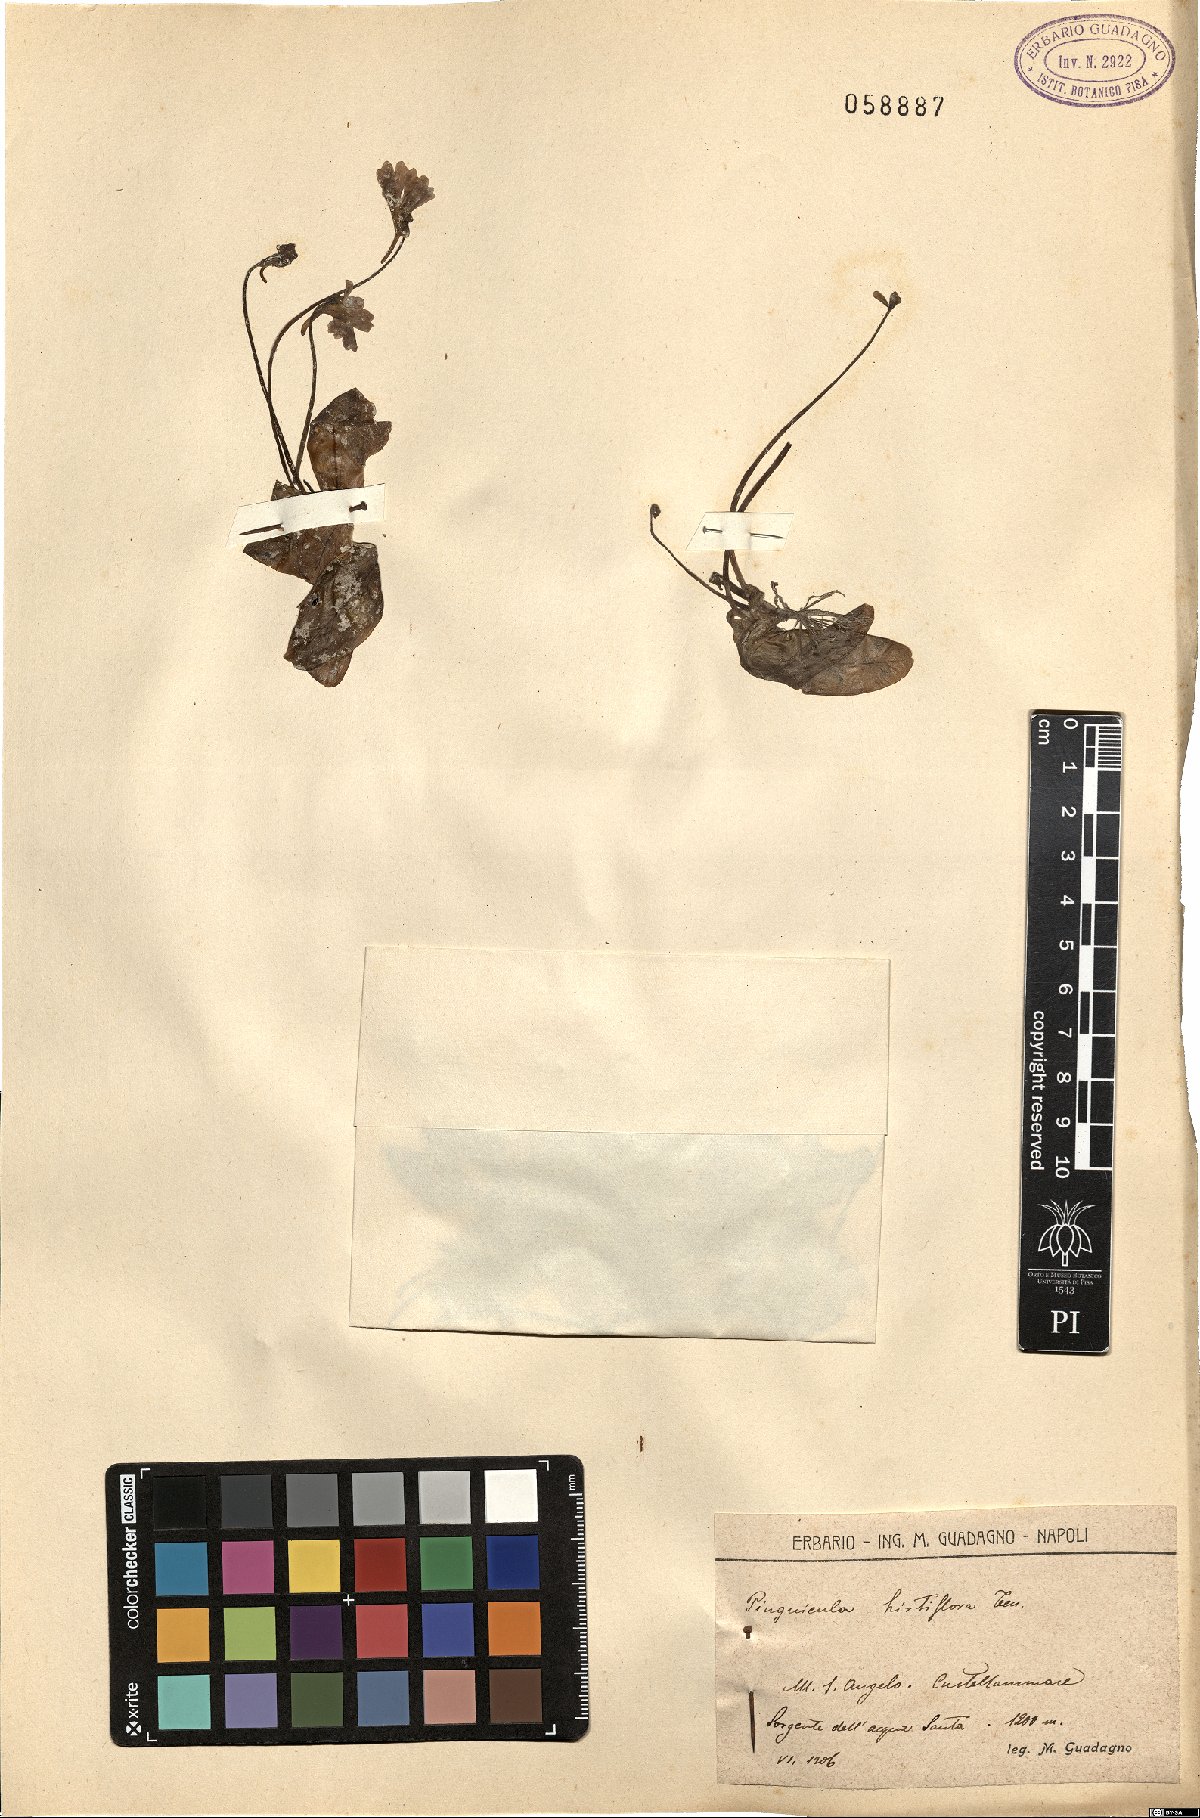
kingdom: Plantae
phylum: Tracheophyta
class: Magnoliopsida
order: Lamiales
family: Lentibulariaceae
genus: Pinguicula
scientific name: Pinguicula crystallina
